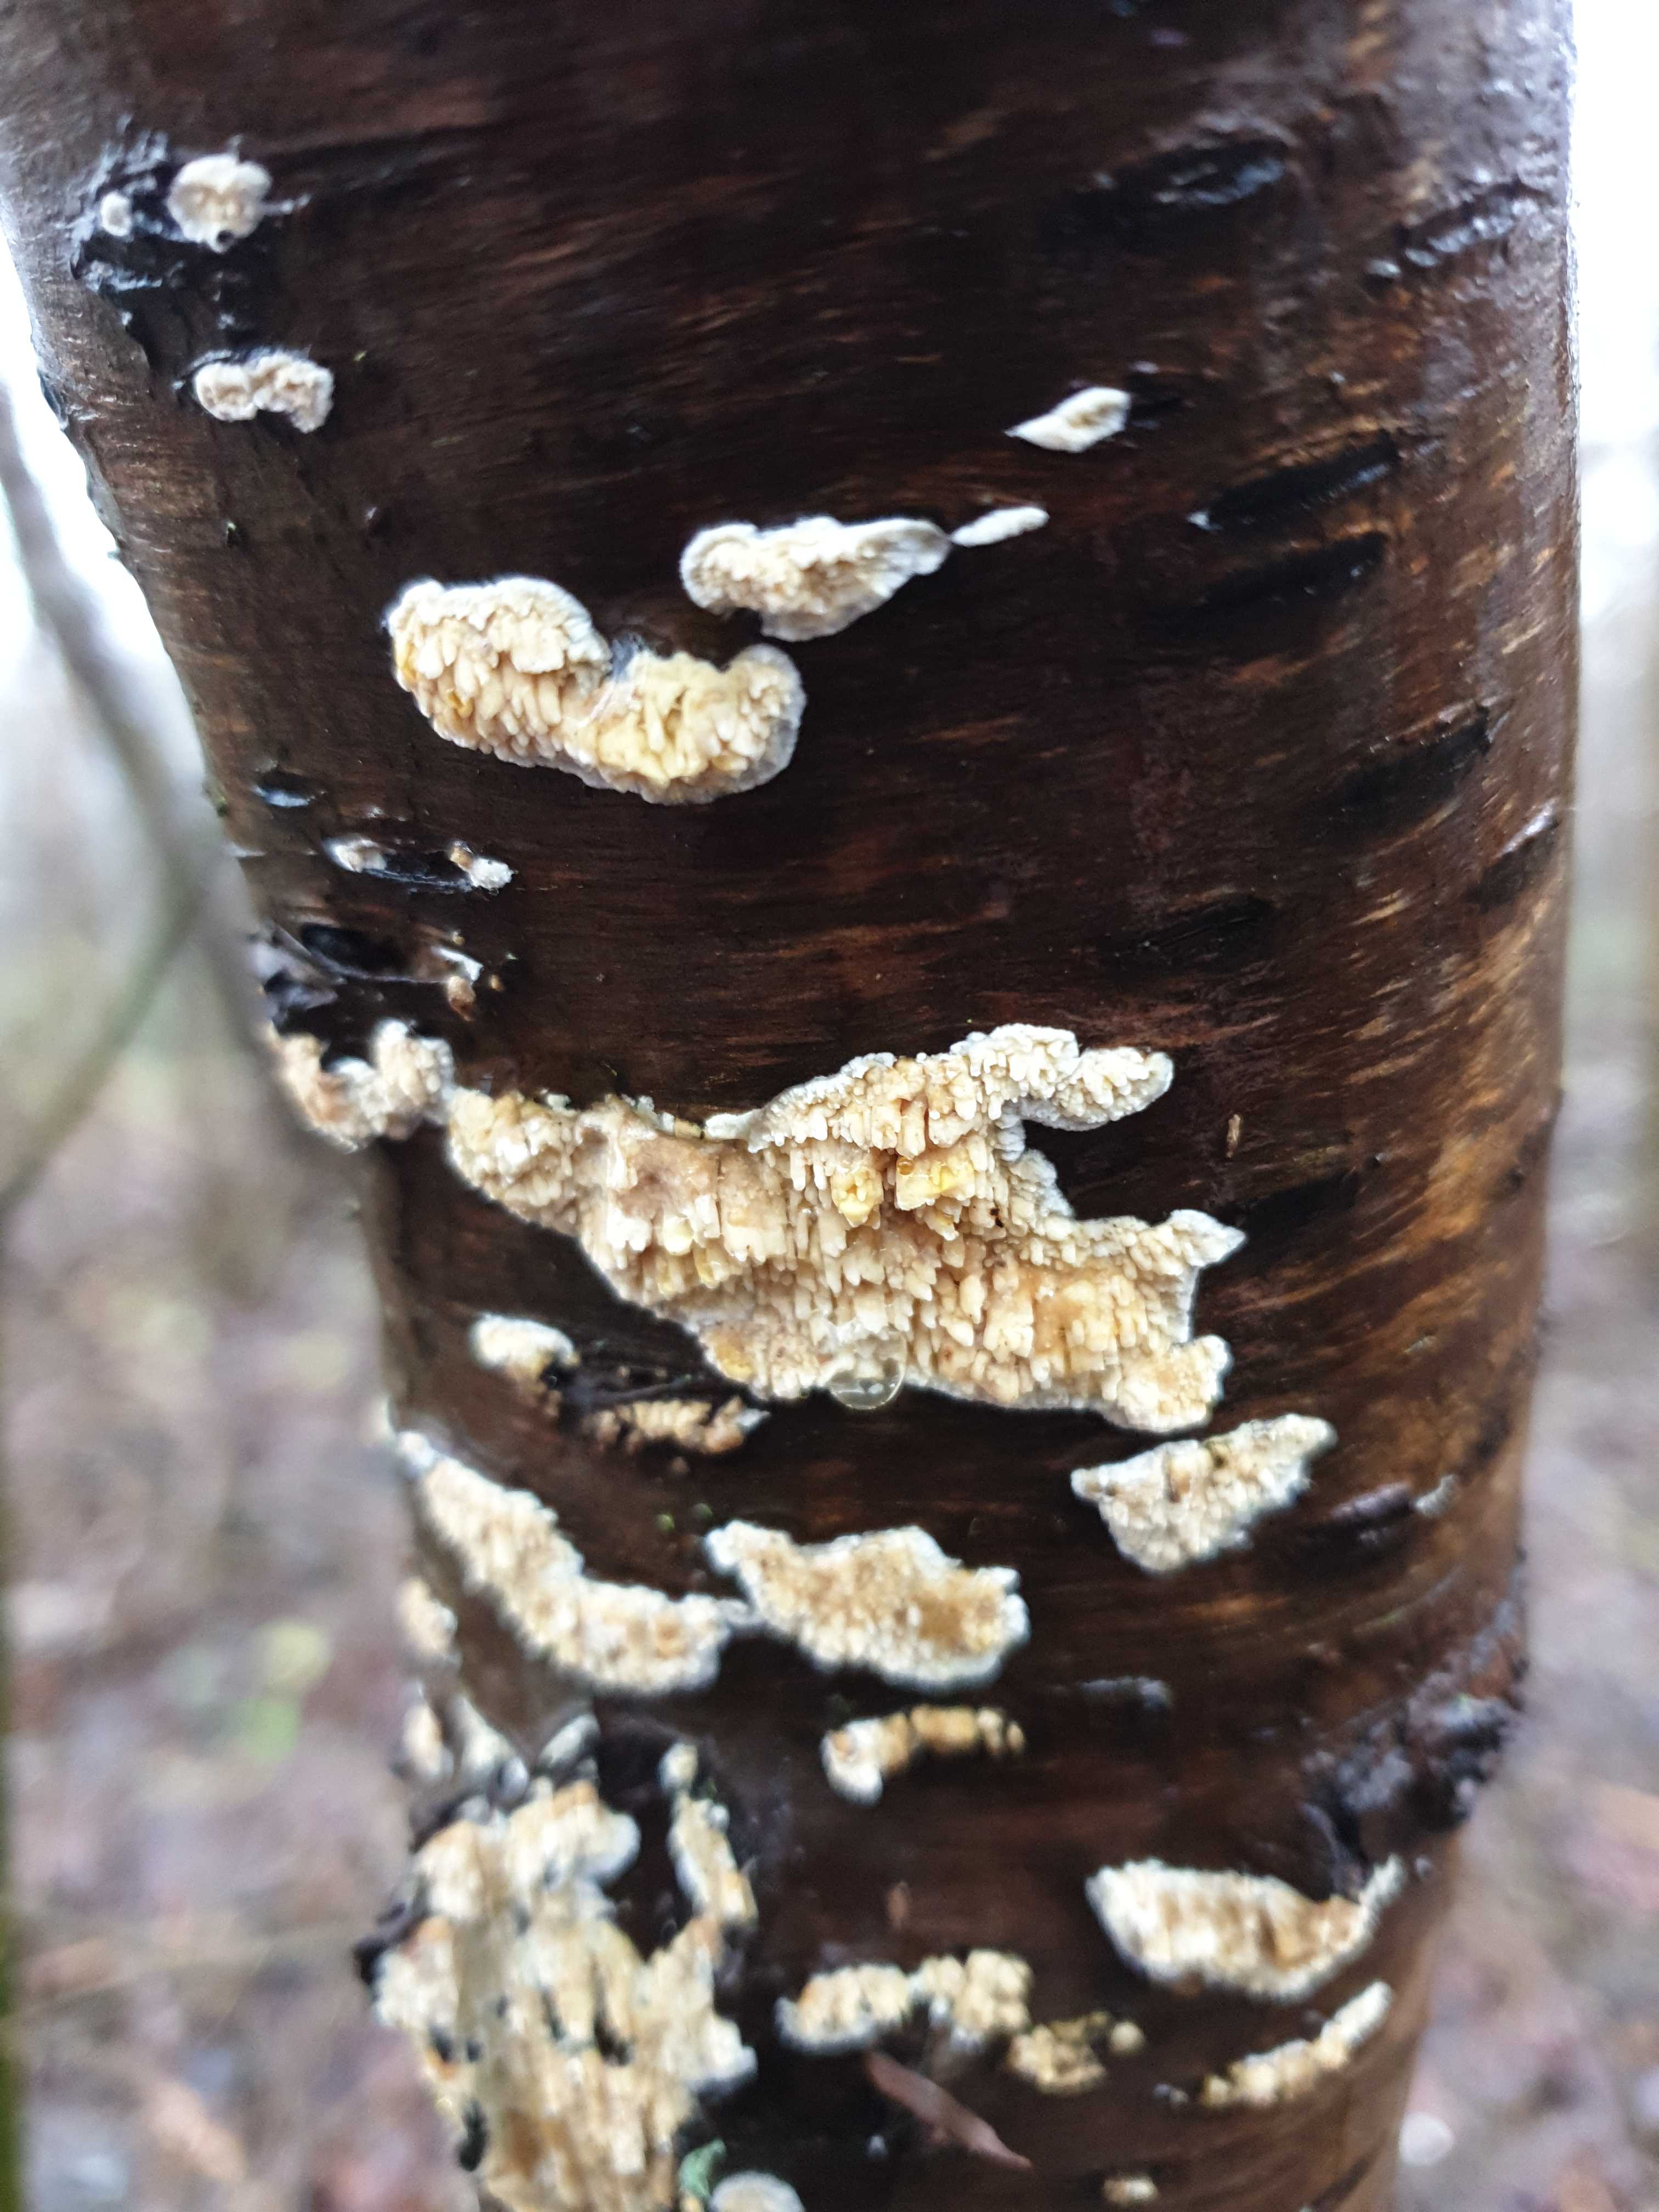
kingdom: Fungi
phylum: Basidiomycota
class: Agaricomycetes
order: Hymenochaetales
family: Schizoporaceae
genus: Xylodon
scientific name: Xylodon radula
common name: grovtandet kalkskind
